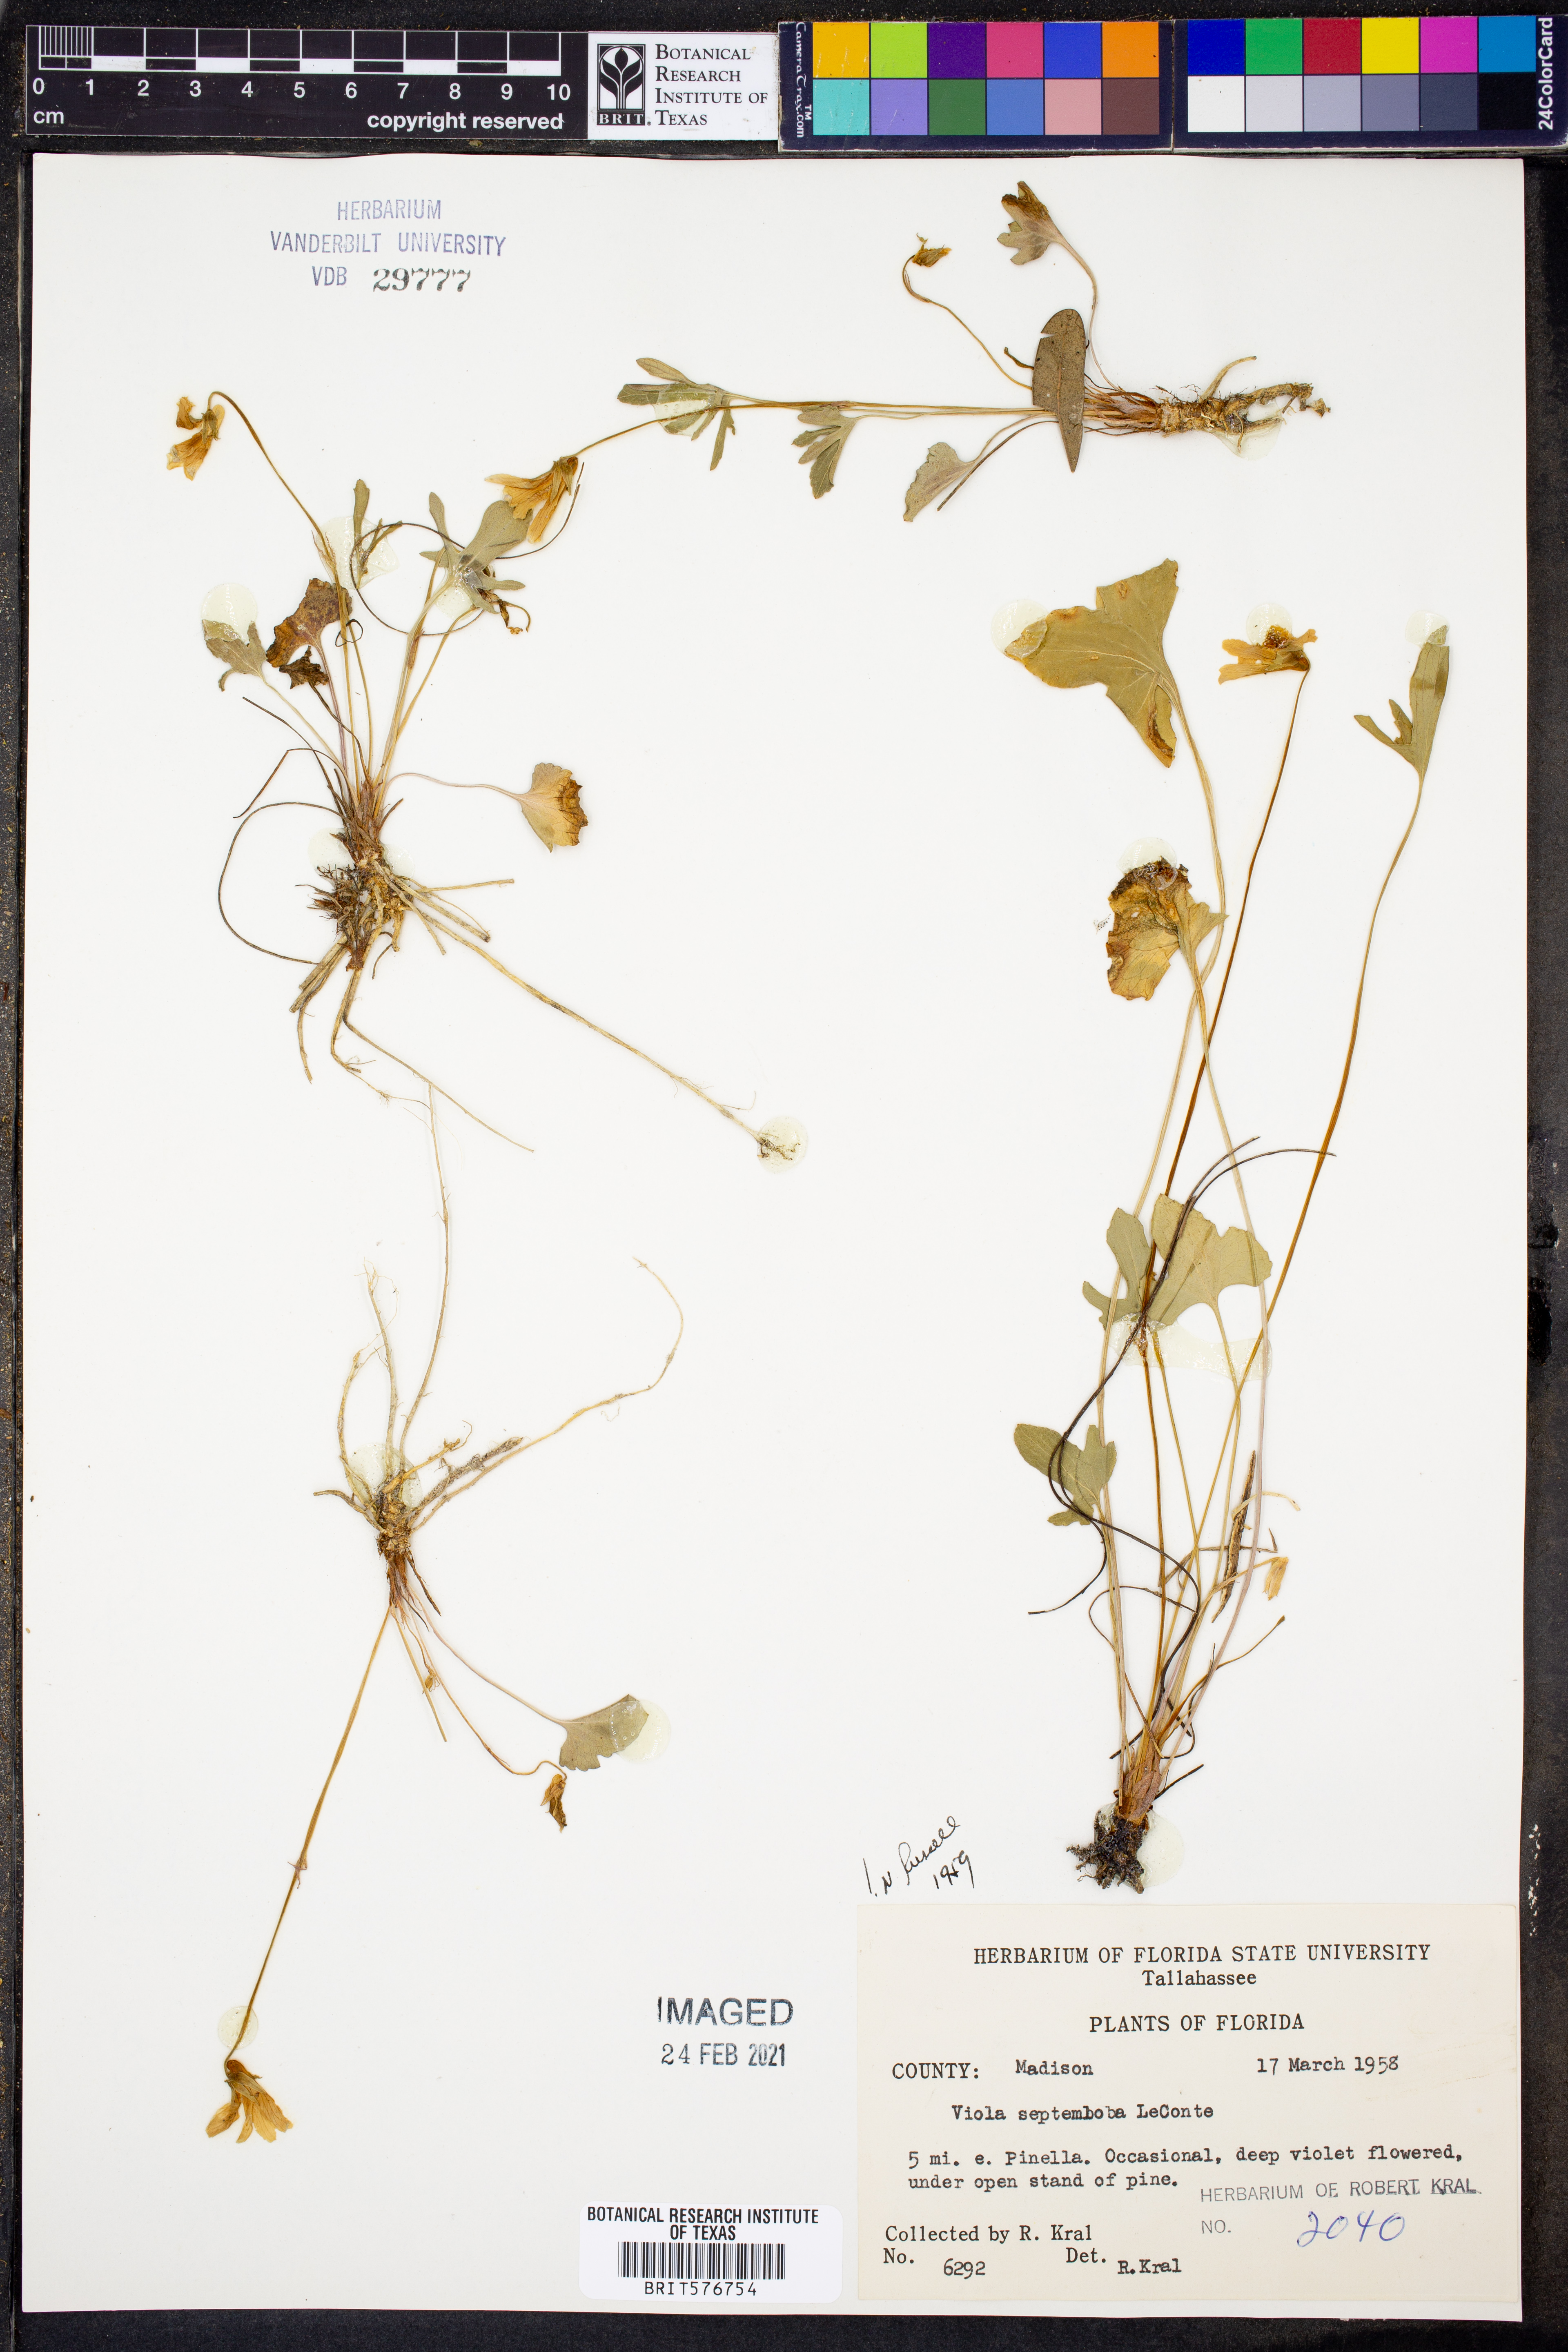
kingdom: Plantae
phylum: Tracheophyta
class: Magnoliopsida
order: Malpighiales
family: Violaceae
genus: Viola
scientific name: Viola septemloba
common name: Southern coast violet
